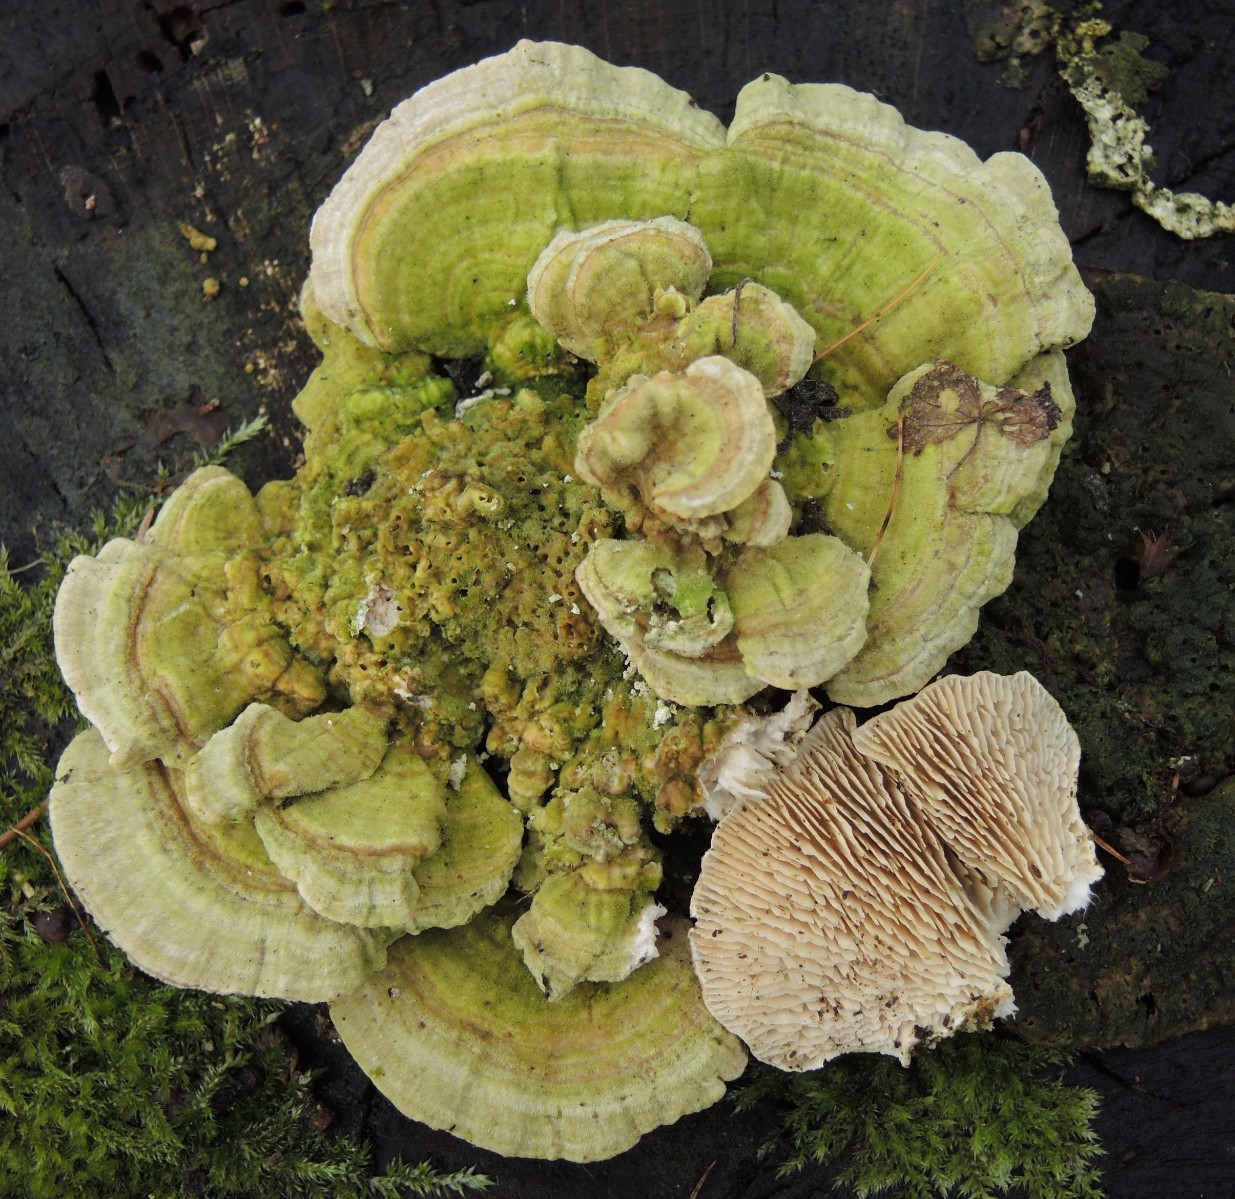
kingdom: Fungi
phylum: Basidiomycota
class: Agaricomycetes
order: Polyporales
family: Polyporaceae
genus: Lenzites
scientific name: Lenzites betulinus
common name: birke-læderporesvamp
